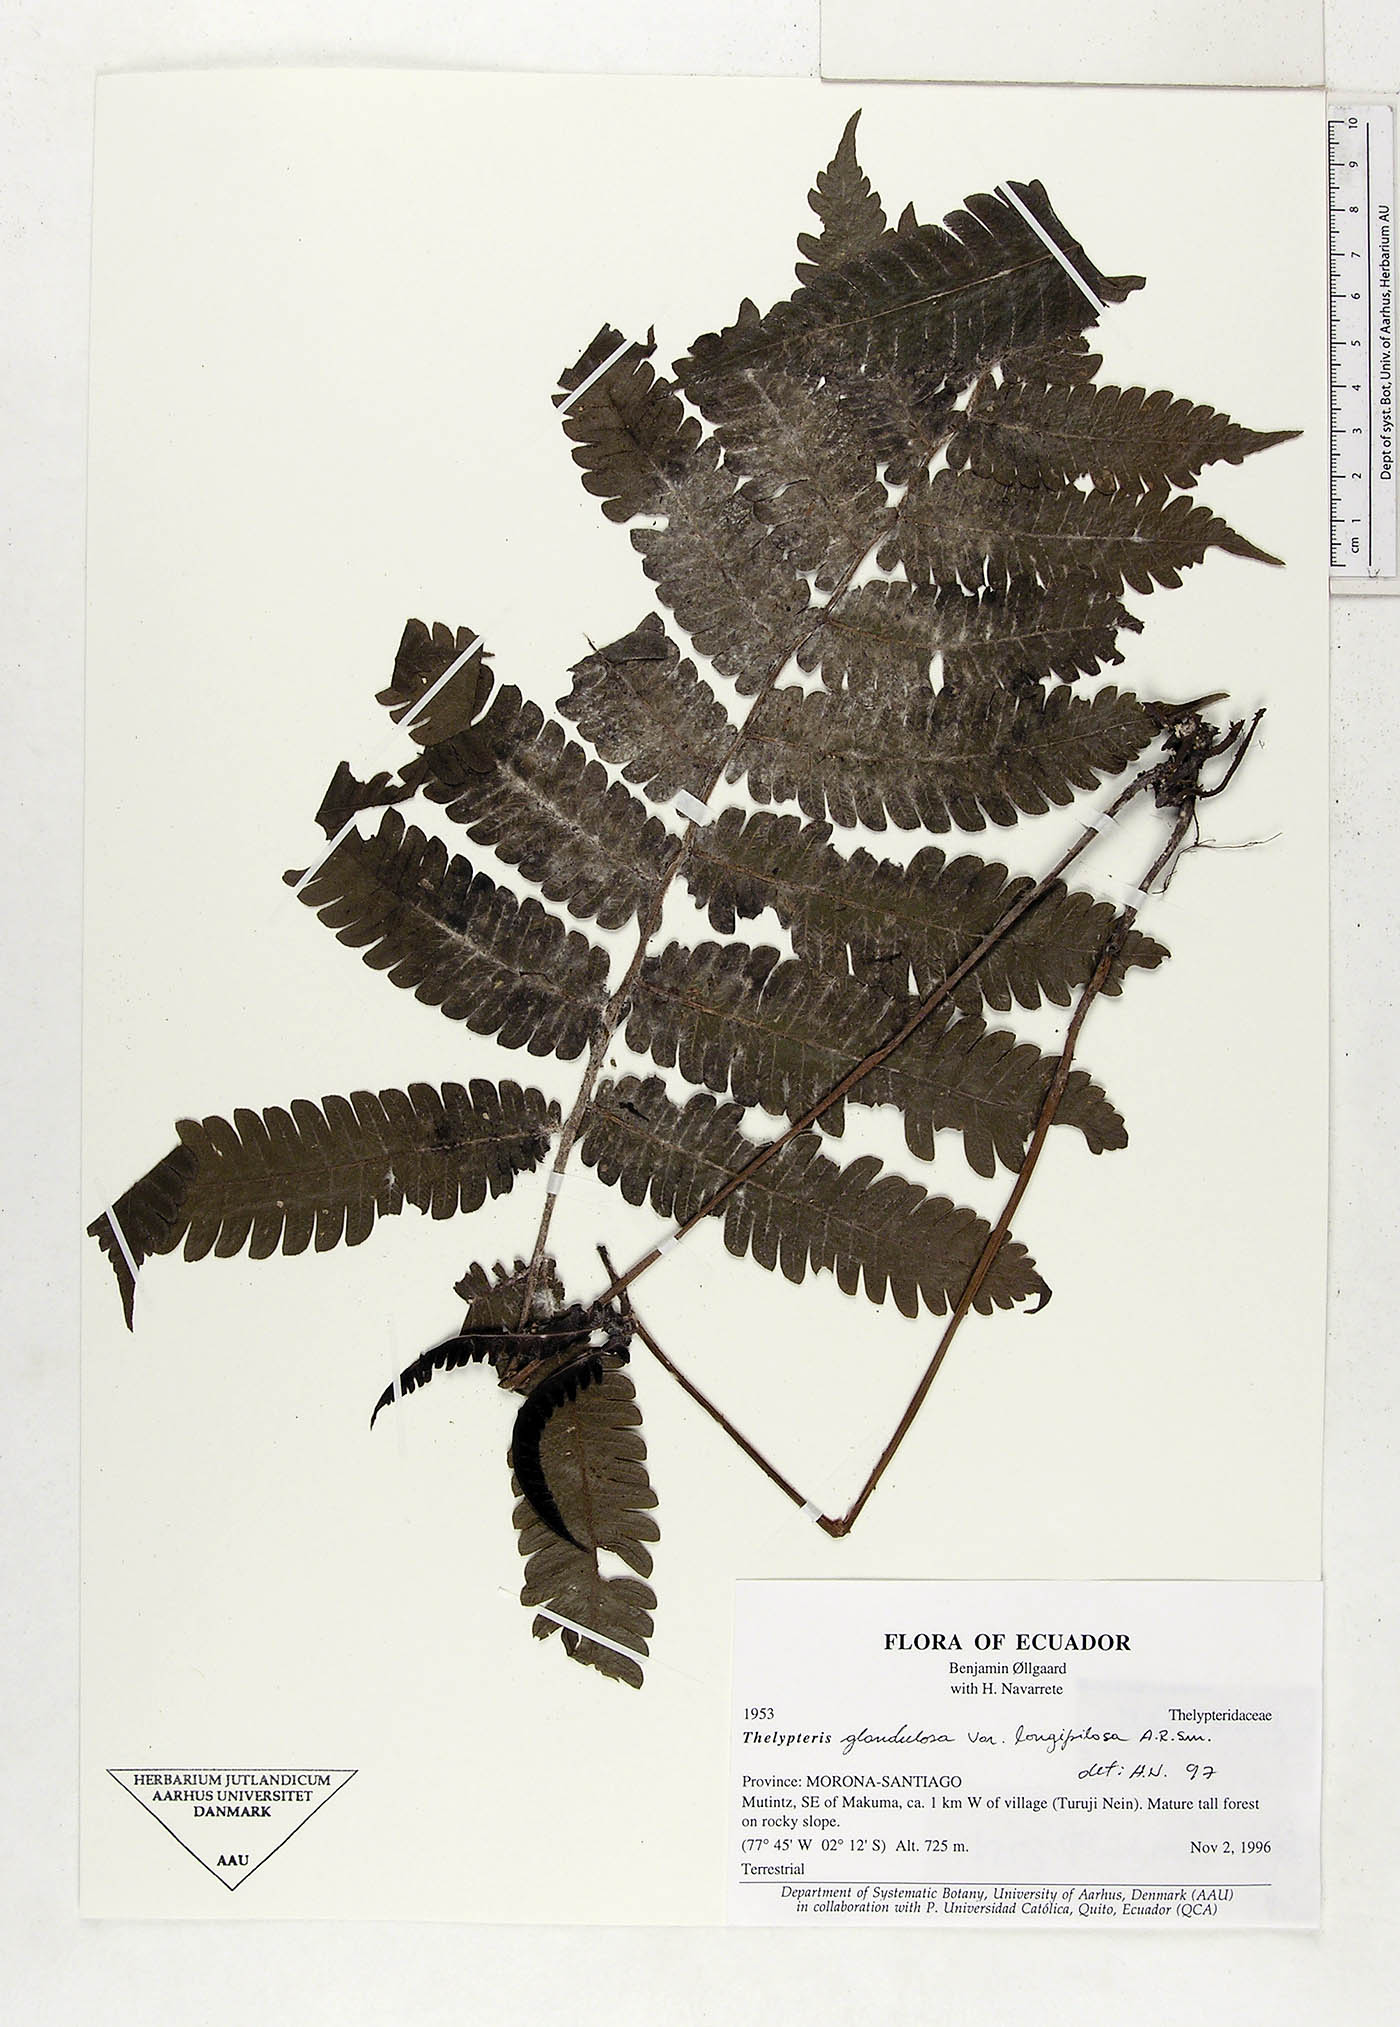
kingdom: Plantae
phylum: Tracheophyta
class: Polypodiopsida
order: Polypodiales
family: Thelypteridaceae
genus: Steiropteris
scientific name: Steiropteris glandulosa
